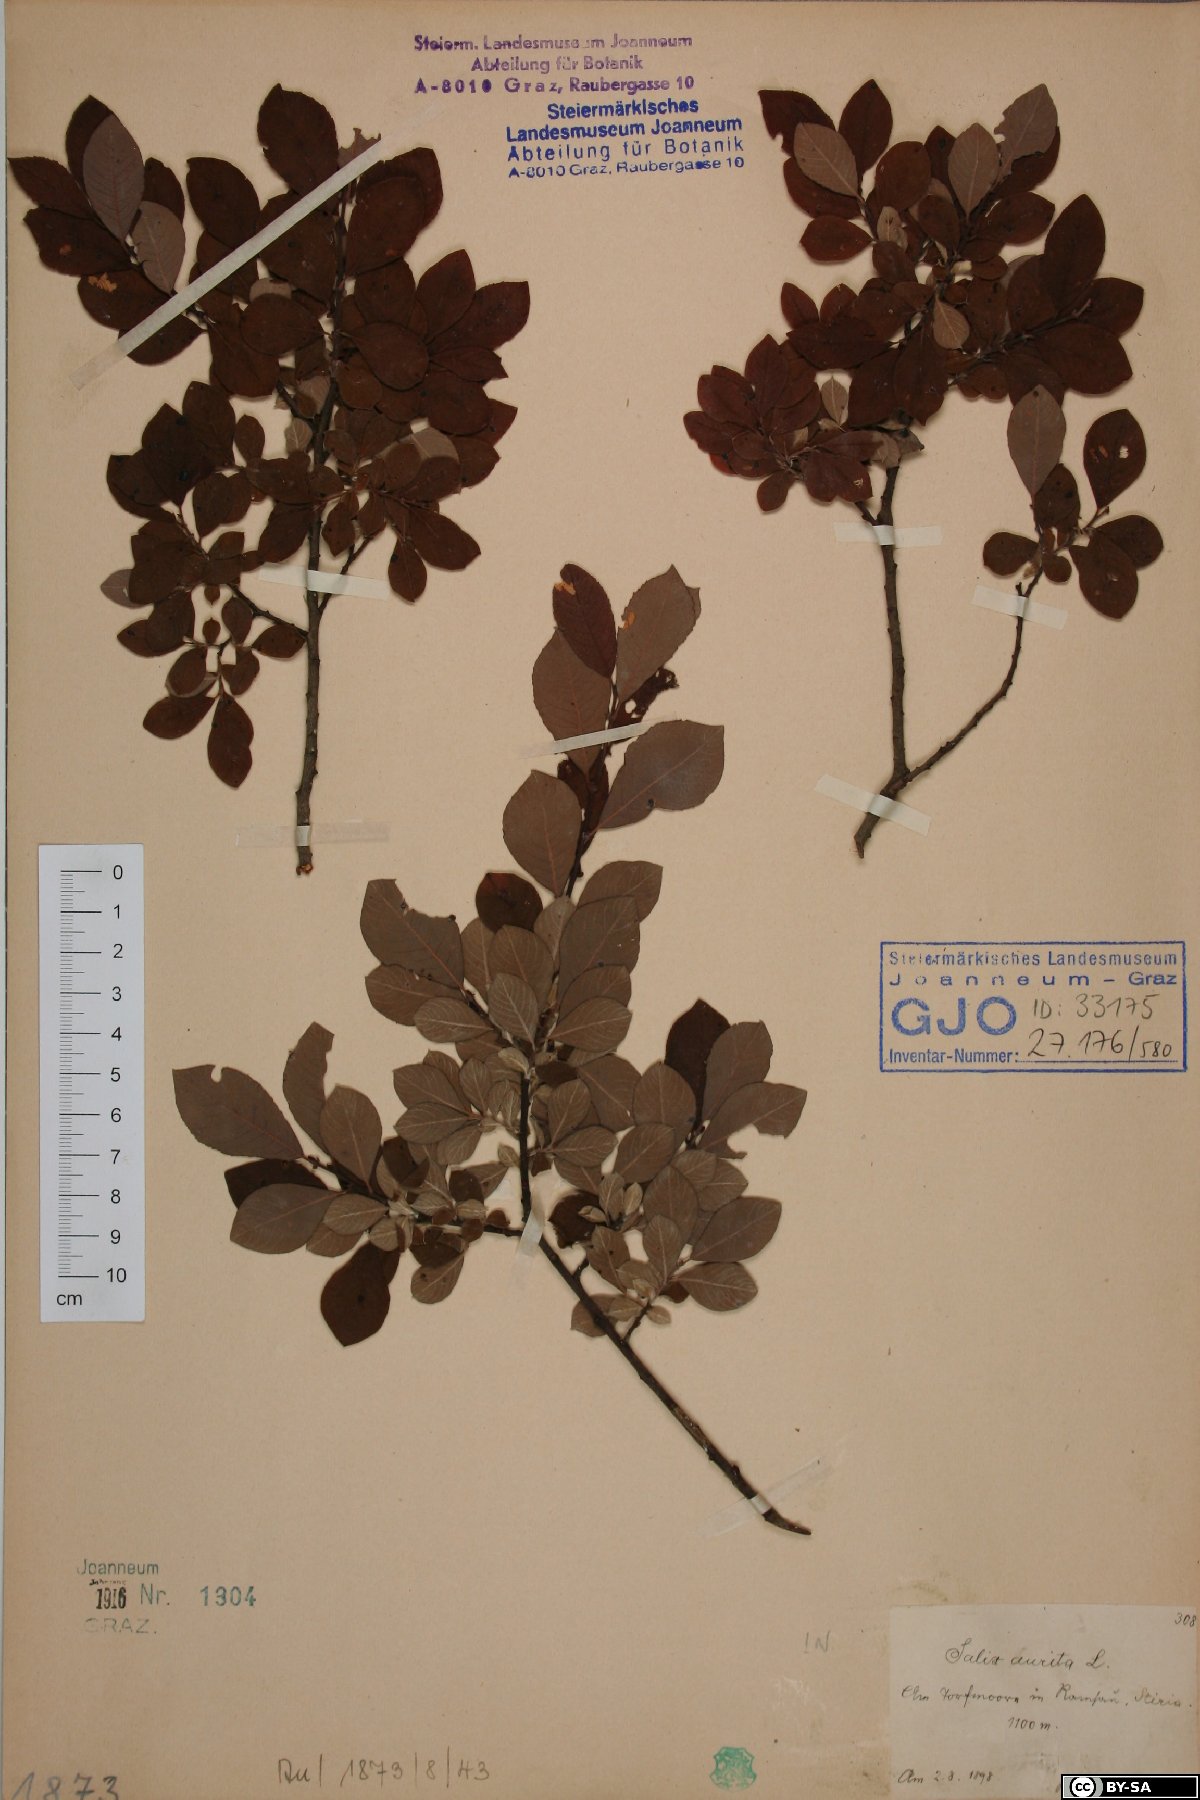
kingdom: Plantae
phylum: Tracheophyta
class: Magnoliopsida
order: Malpighiales
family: Salicaceae
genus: Salix
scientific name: Salix aurita
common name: Eared willow
